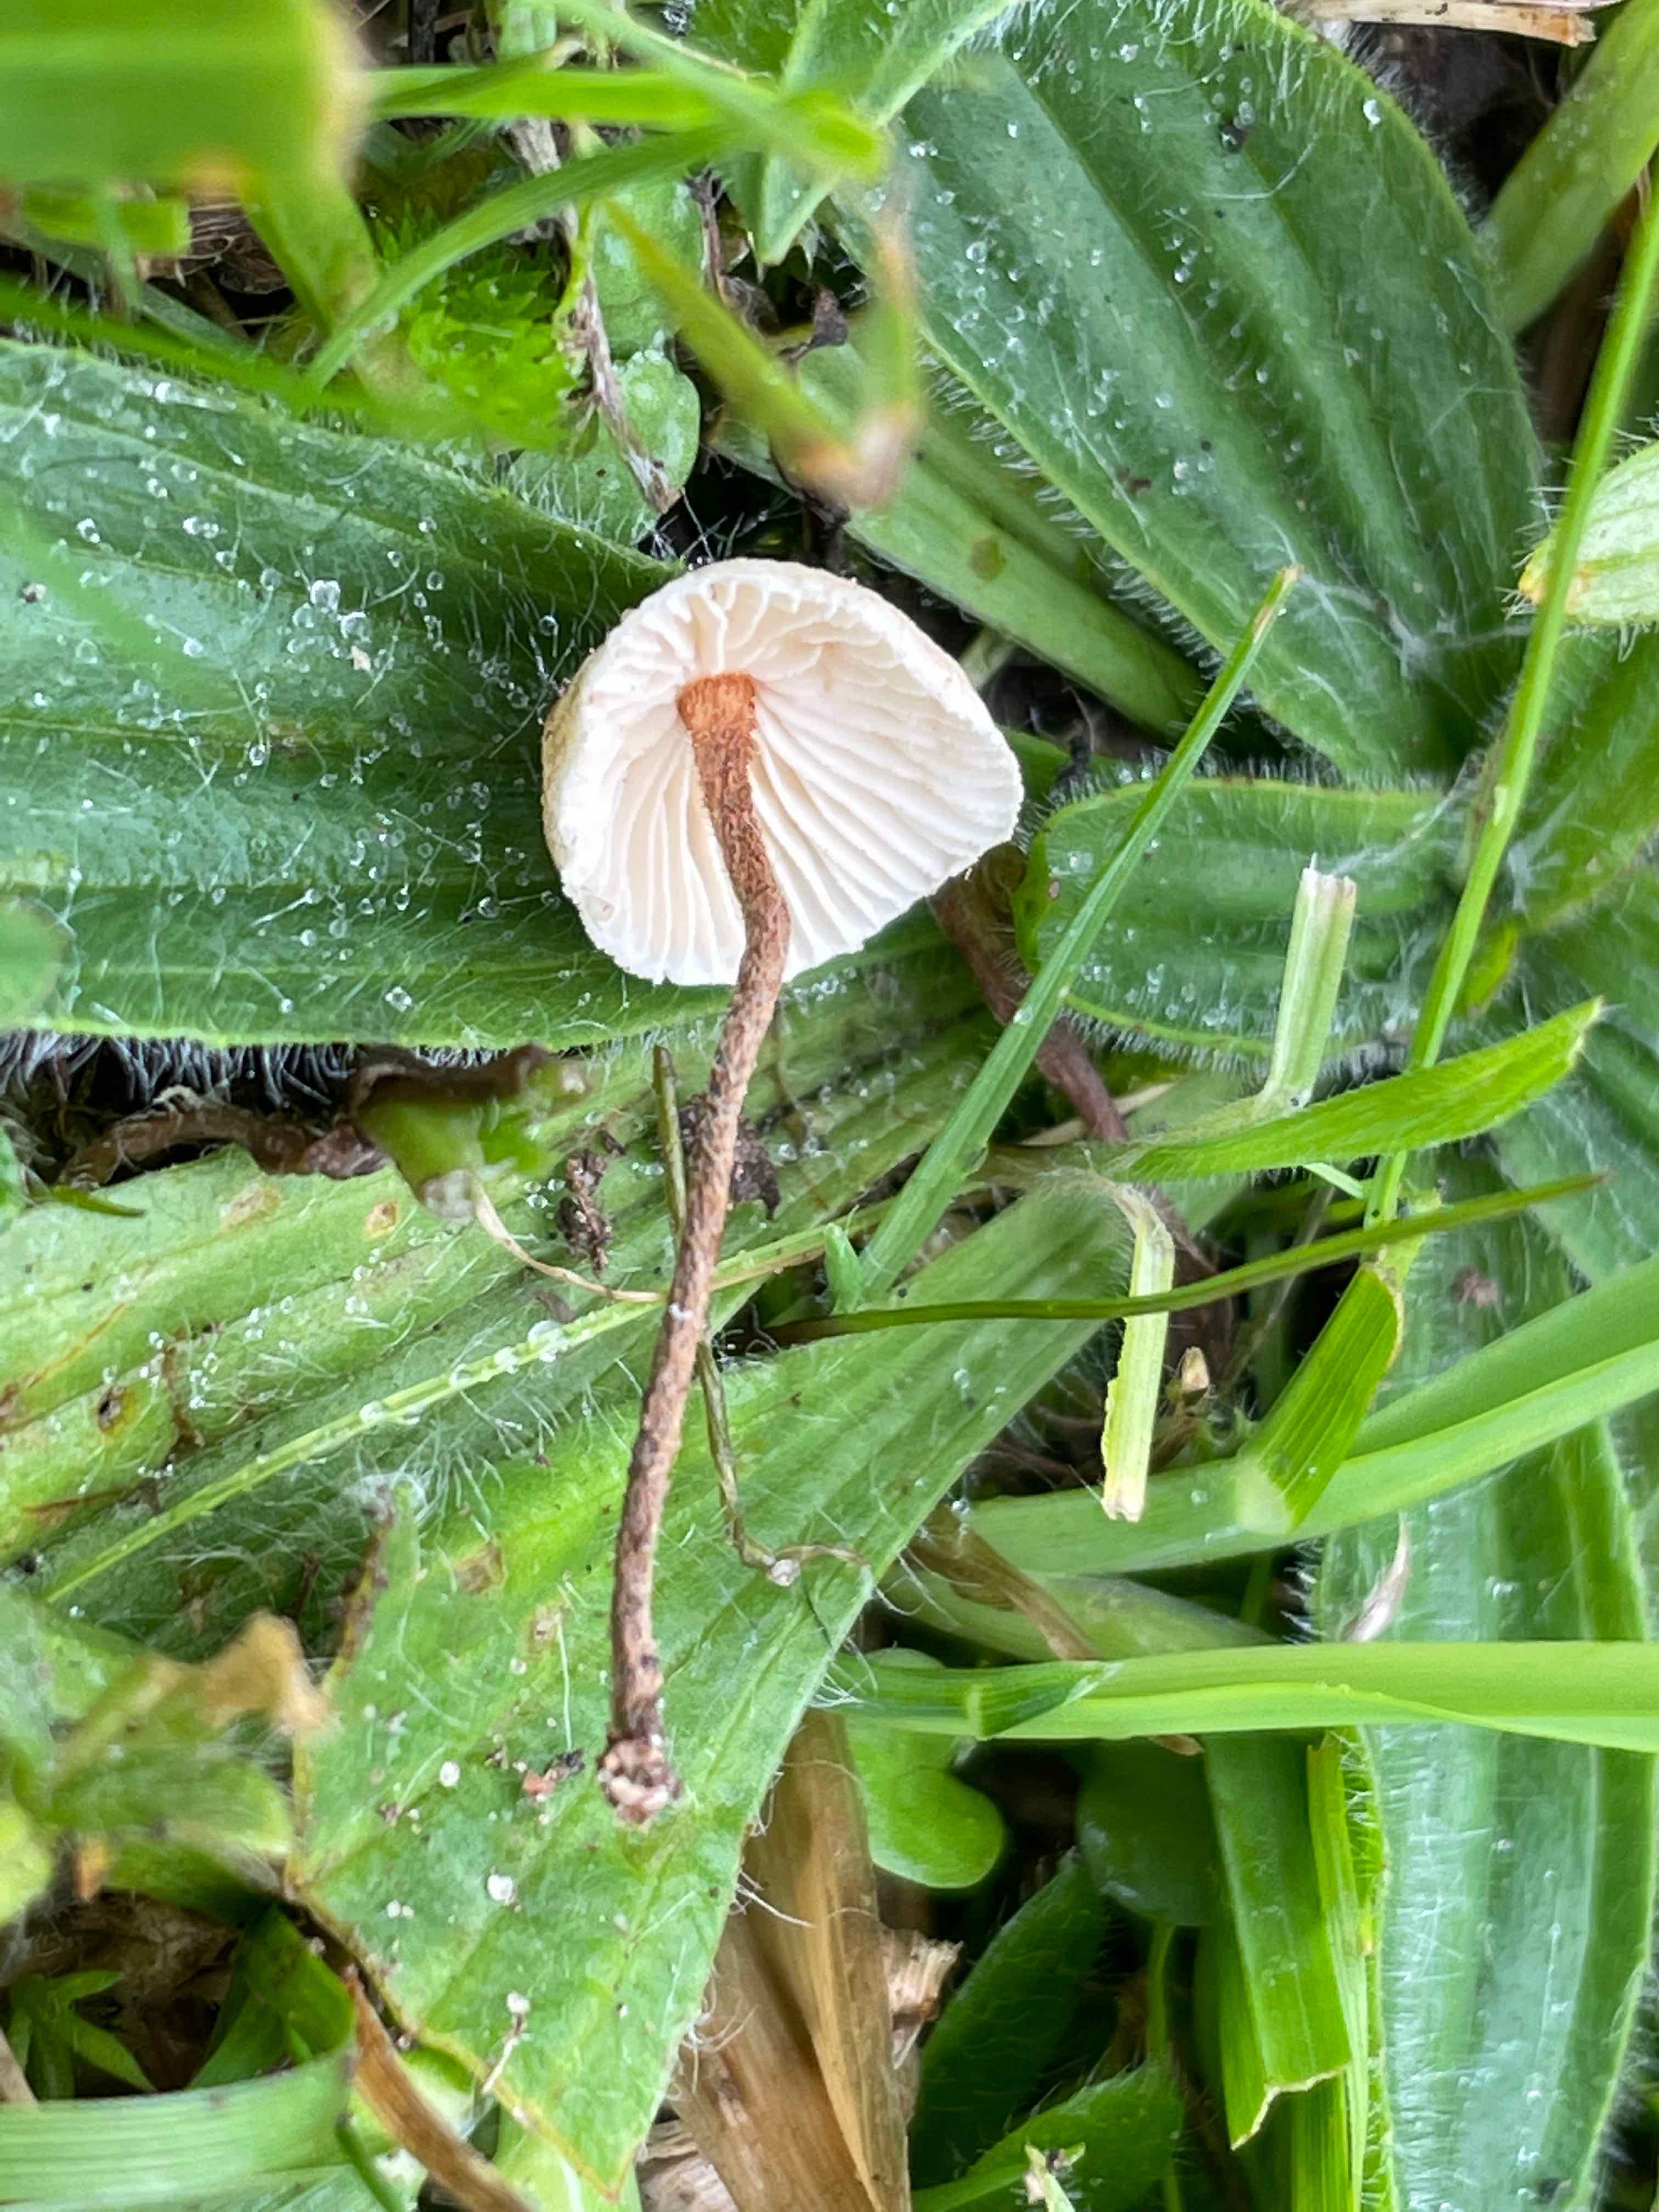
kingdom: Fungi
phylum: Basidiomycota
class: Agaricomycetes
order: Agaricales
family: Marasmiaceae
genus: Crinipellis
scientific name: Crinipellis scabella
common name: børstefod
